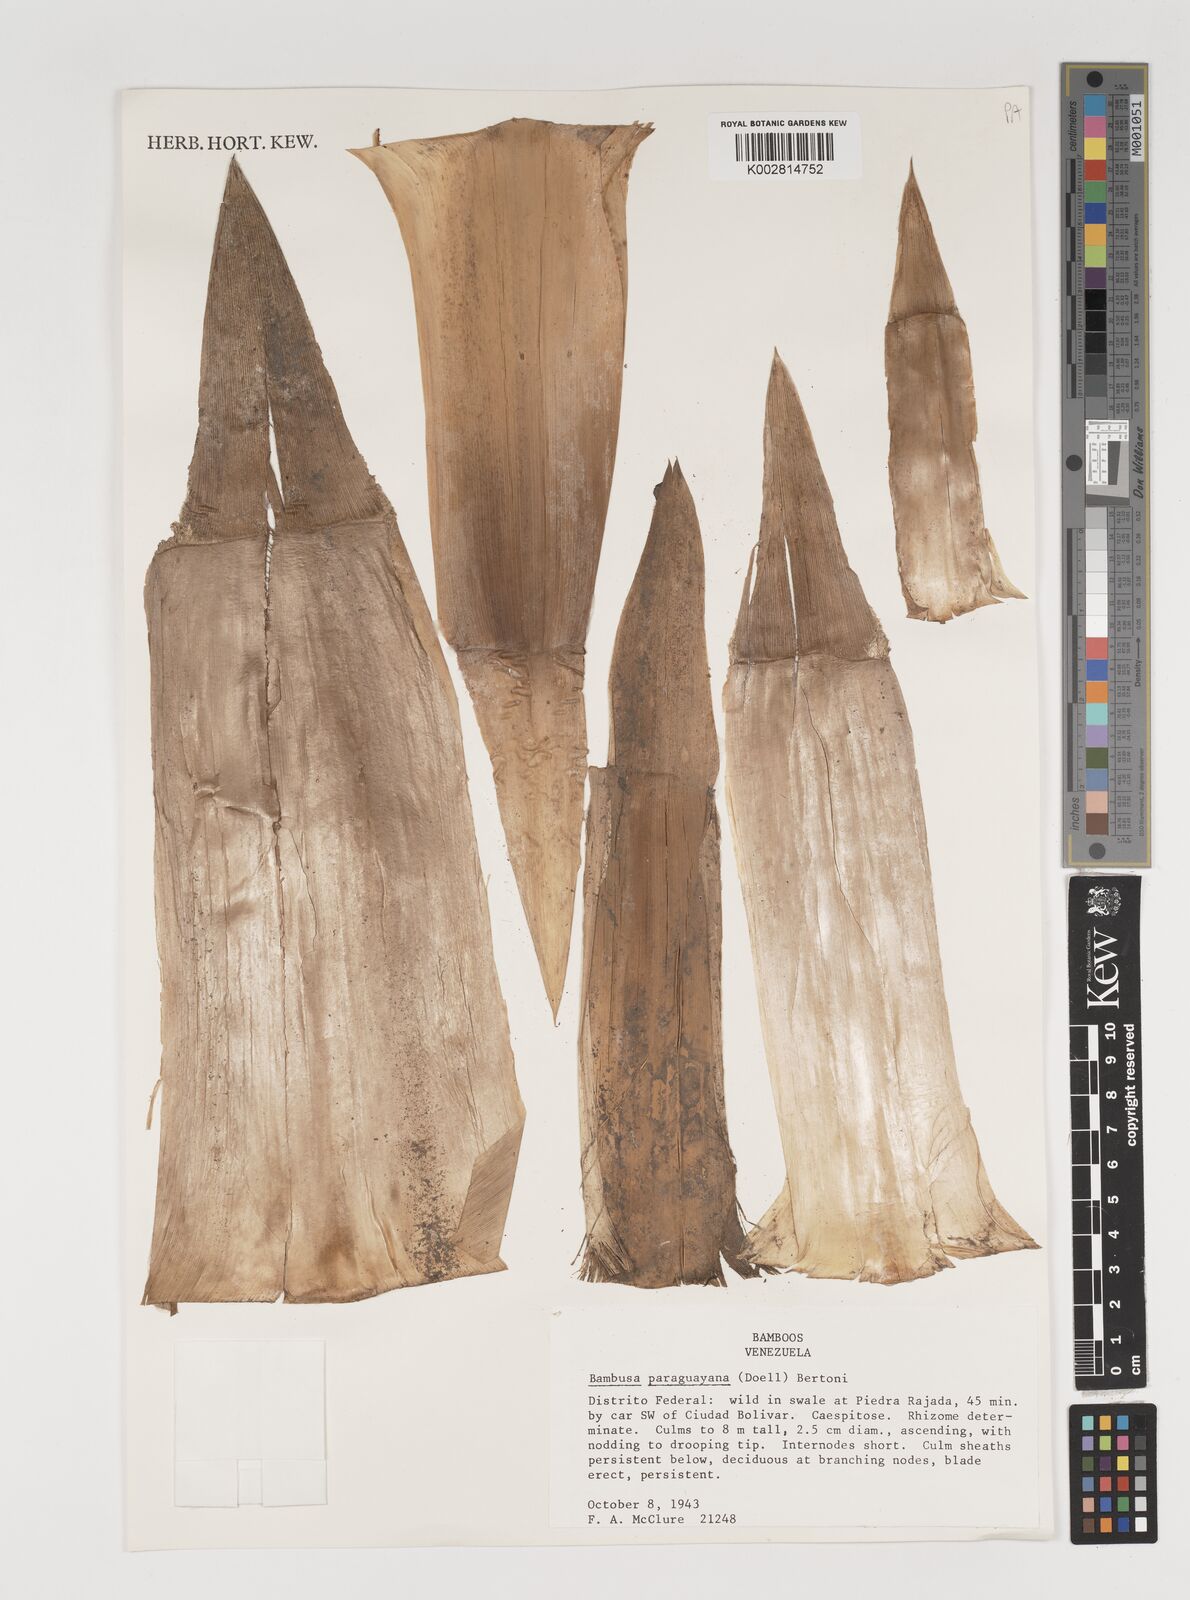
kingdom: Plantae
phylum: Tracheophyta
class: Liliopsida
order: Poales
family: Poaceae
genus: Guadua
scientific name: Guadua
